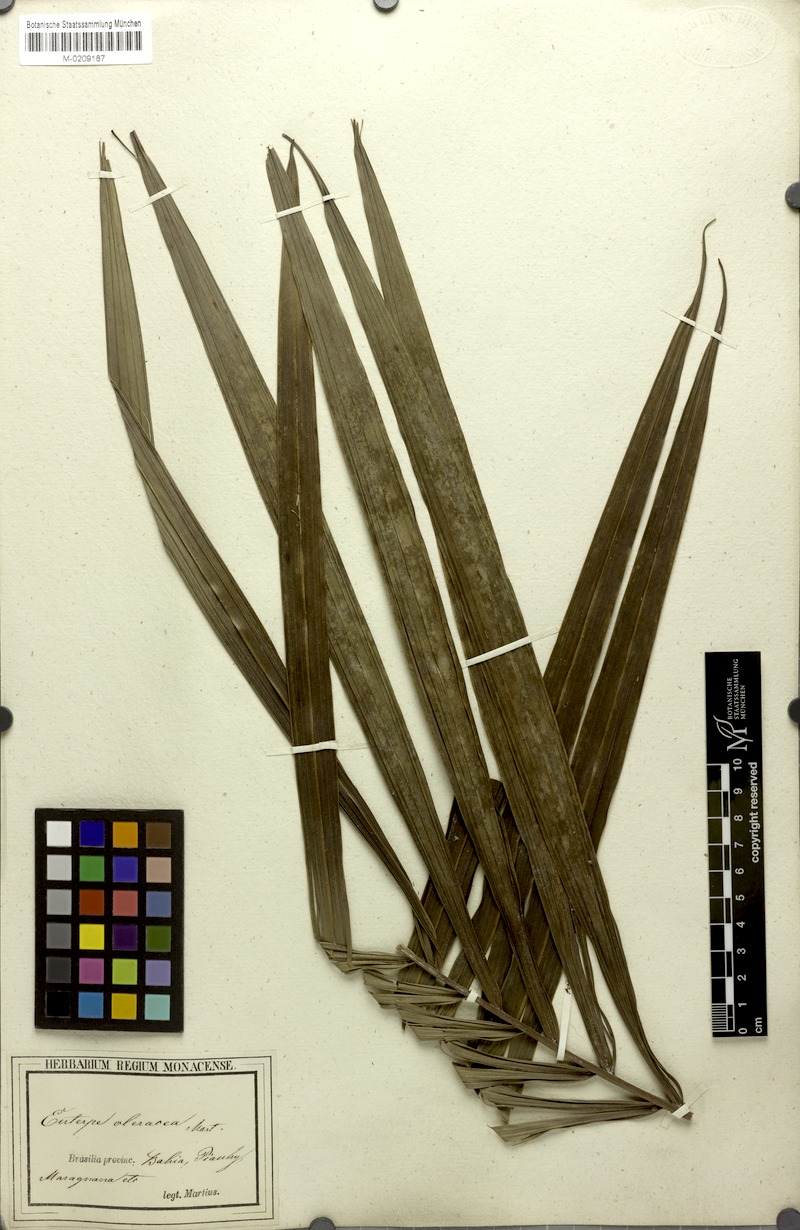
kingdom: Plantae
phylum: Tracheophyta
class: Liliopsida
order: Arecales
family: Arecaceae
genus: Euterpe
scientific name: Euterpe oleracea
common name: Assai palm
